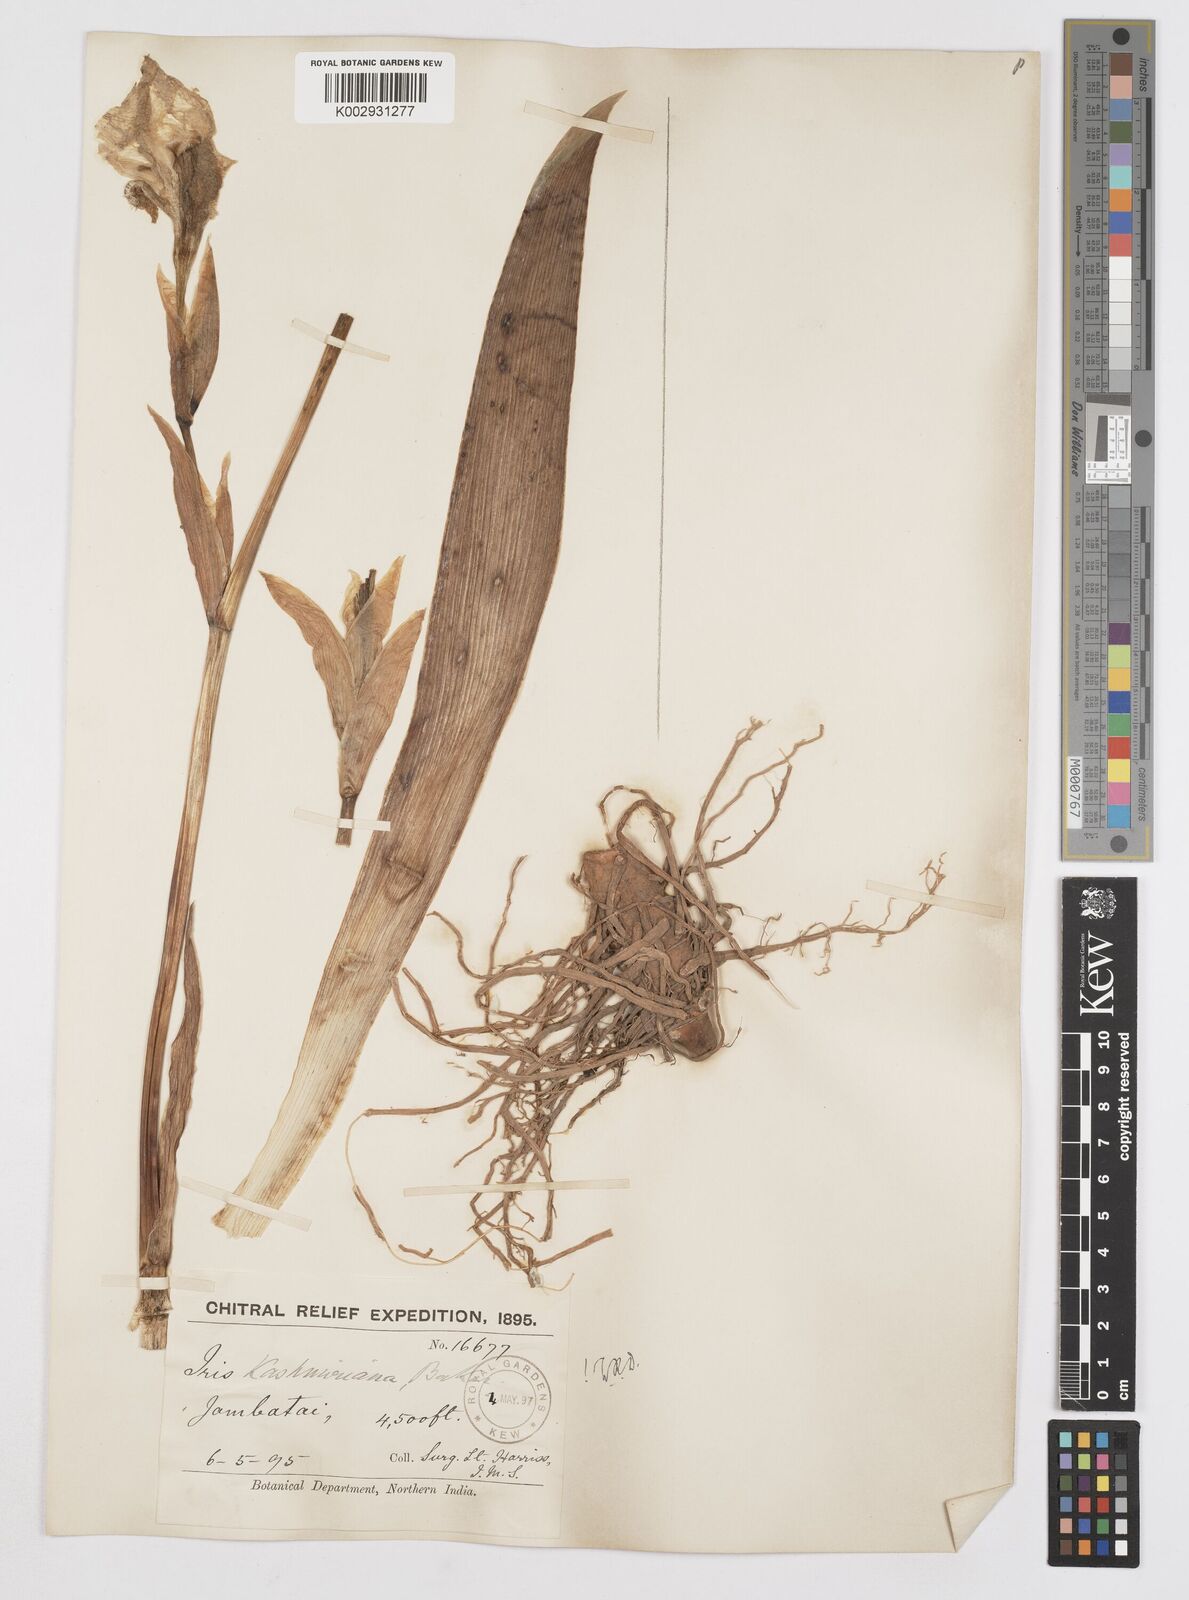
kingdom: Plantae
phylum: Tracheophyta
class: Liliopsida
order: Asparagales
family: Iridaceae
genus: Iris
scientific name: Iris kashmiriana
